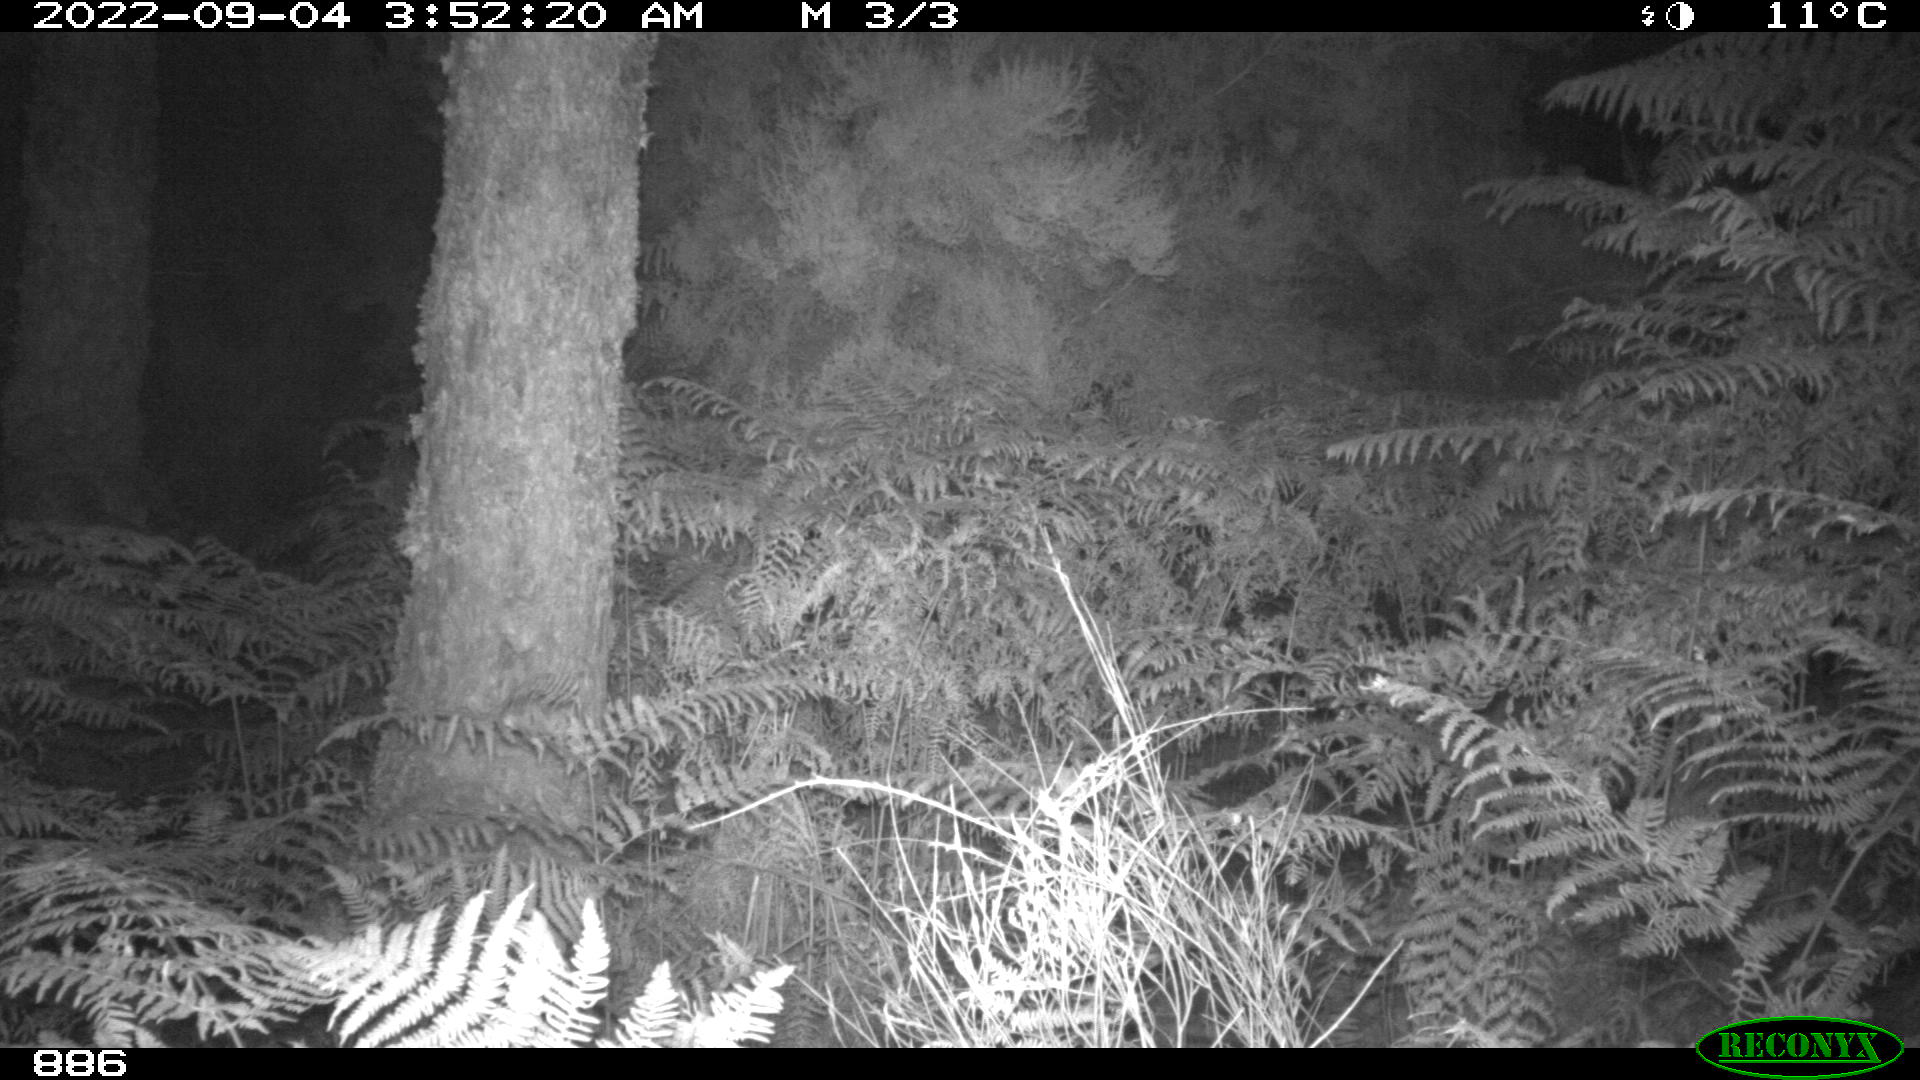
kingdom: Animalia
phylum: Chordata
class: Mammalia
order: Artiodactyla
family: Suidae
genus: Sus
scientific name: Sus scrofa
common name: Wild boar
